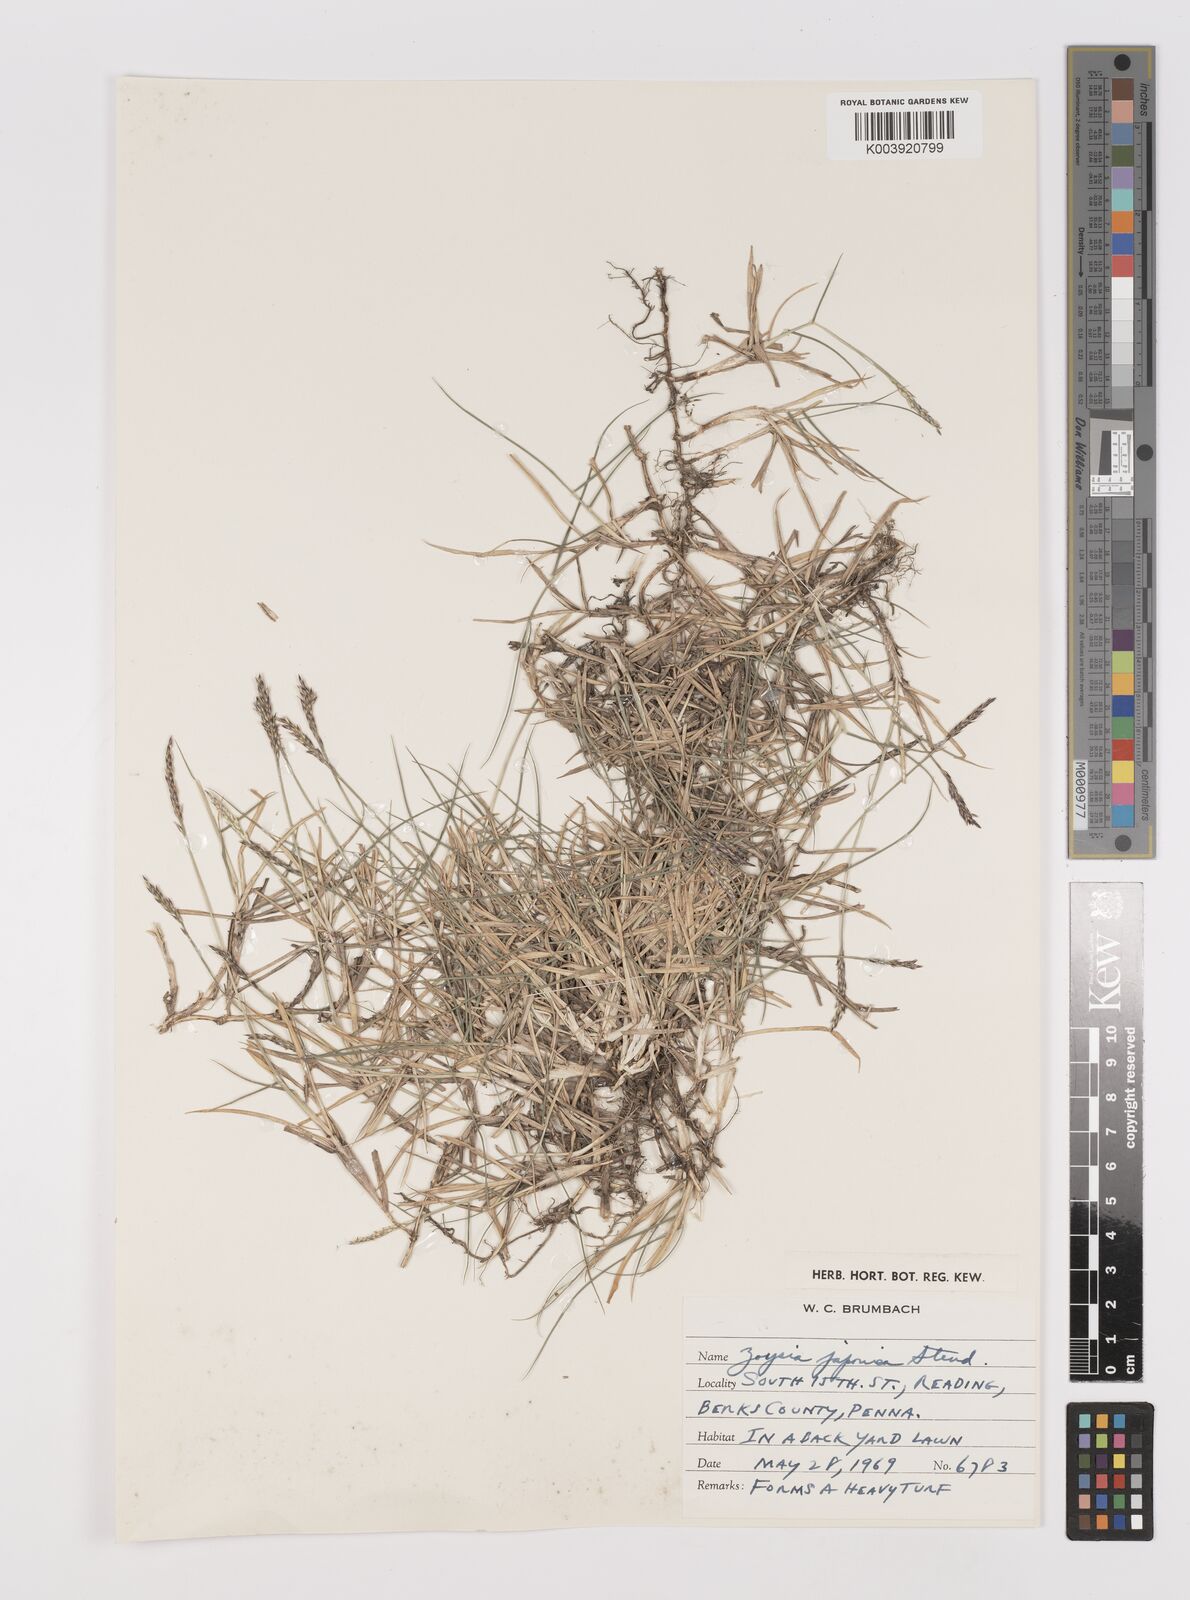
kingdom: Plantae
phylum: Tracheophyta
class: Liliopsida
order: Poales
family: Poaceae
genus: Zoysia
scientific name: Zoysia matrella
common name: Manila grass
